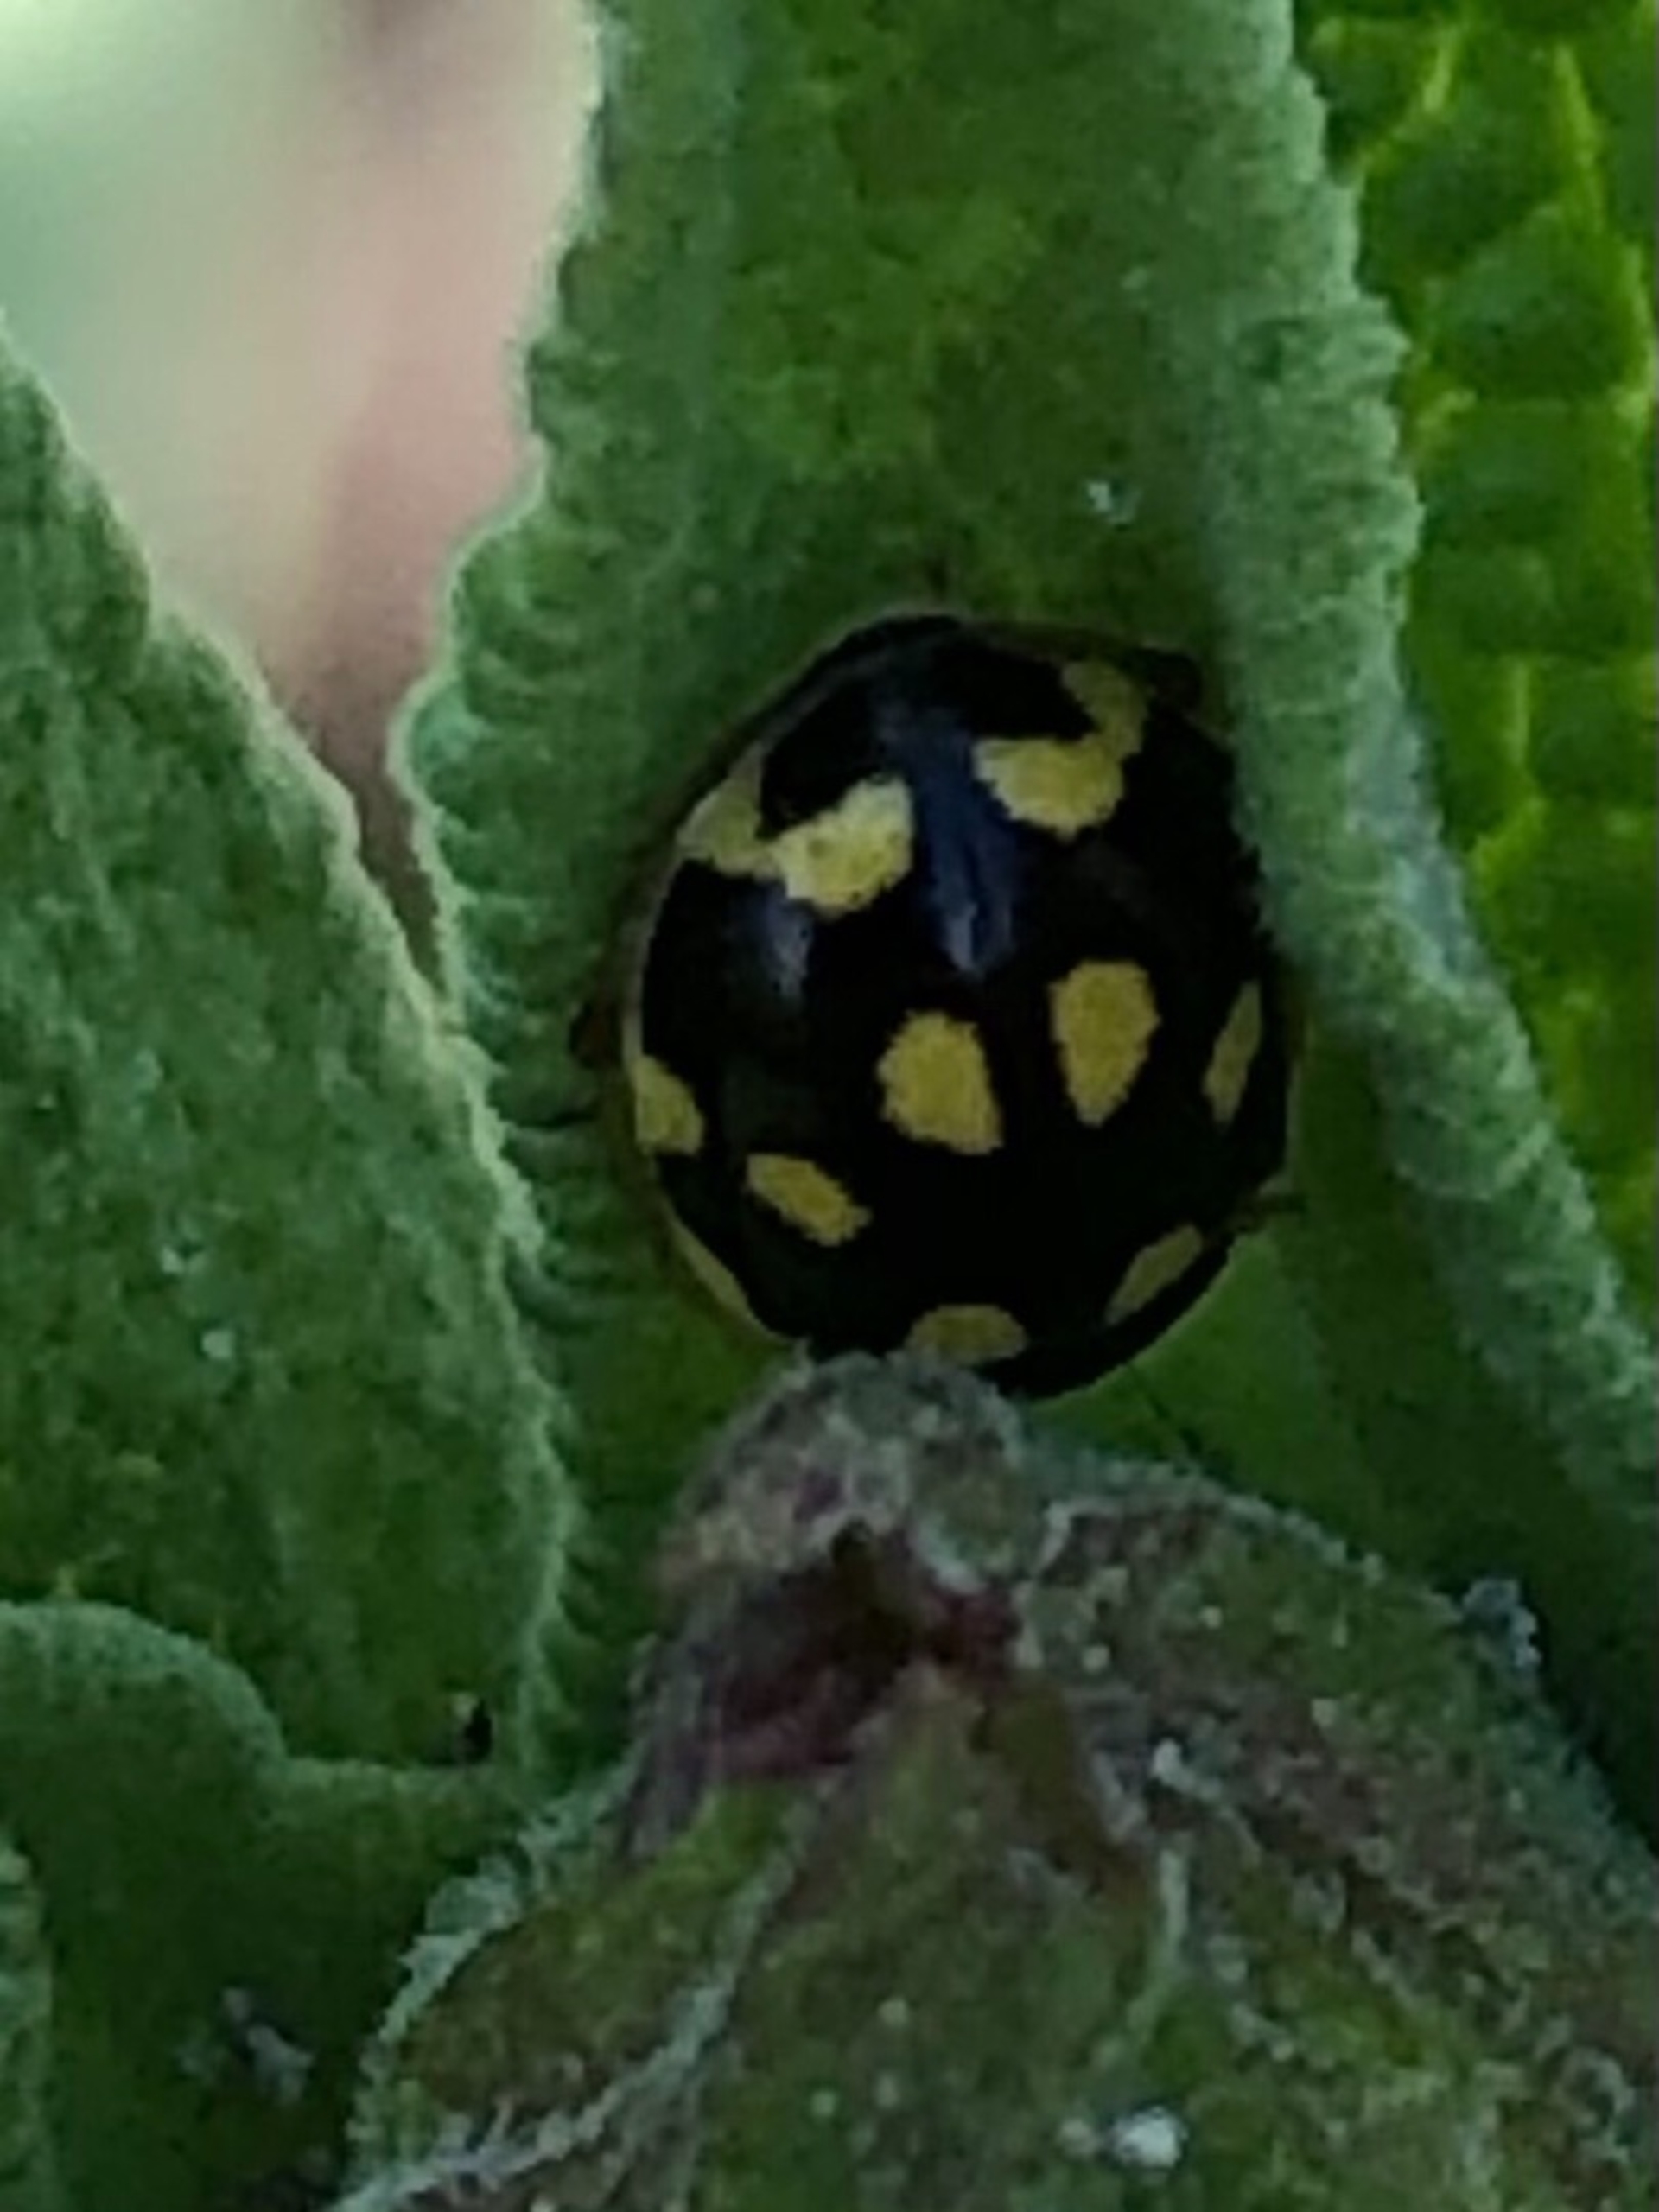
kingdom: Animalia
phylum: Arthropoda
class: Insecta
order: Coleoptera
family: Coccinellidae
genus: Propylaea
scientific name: Propylaea quatuordecimpunctata
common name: Skakbræt
